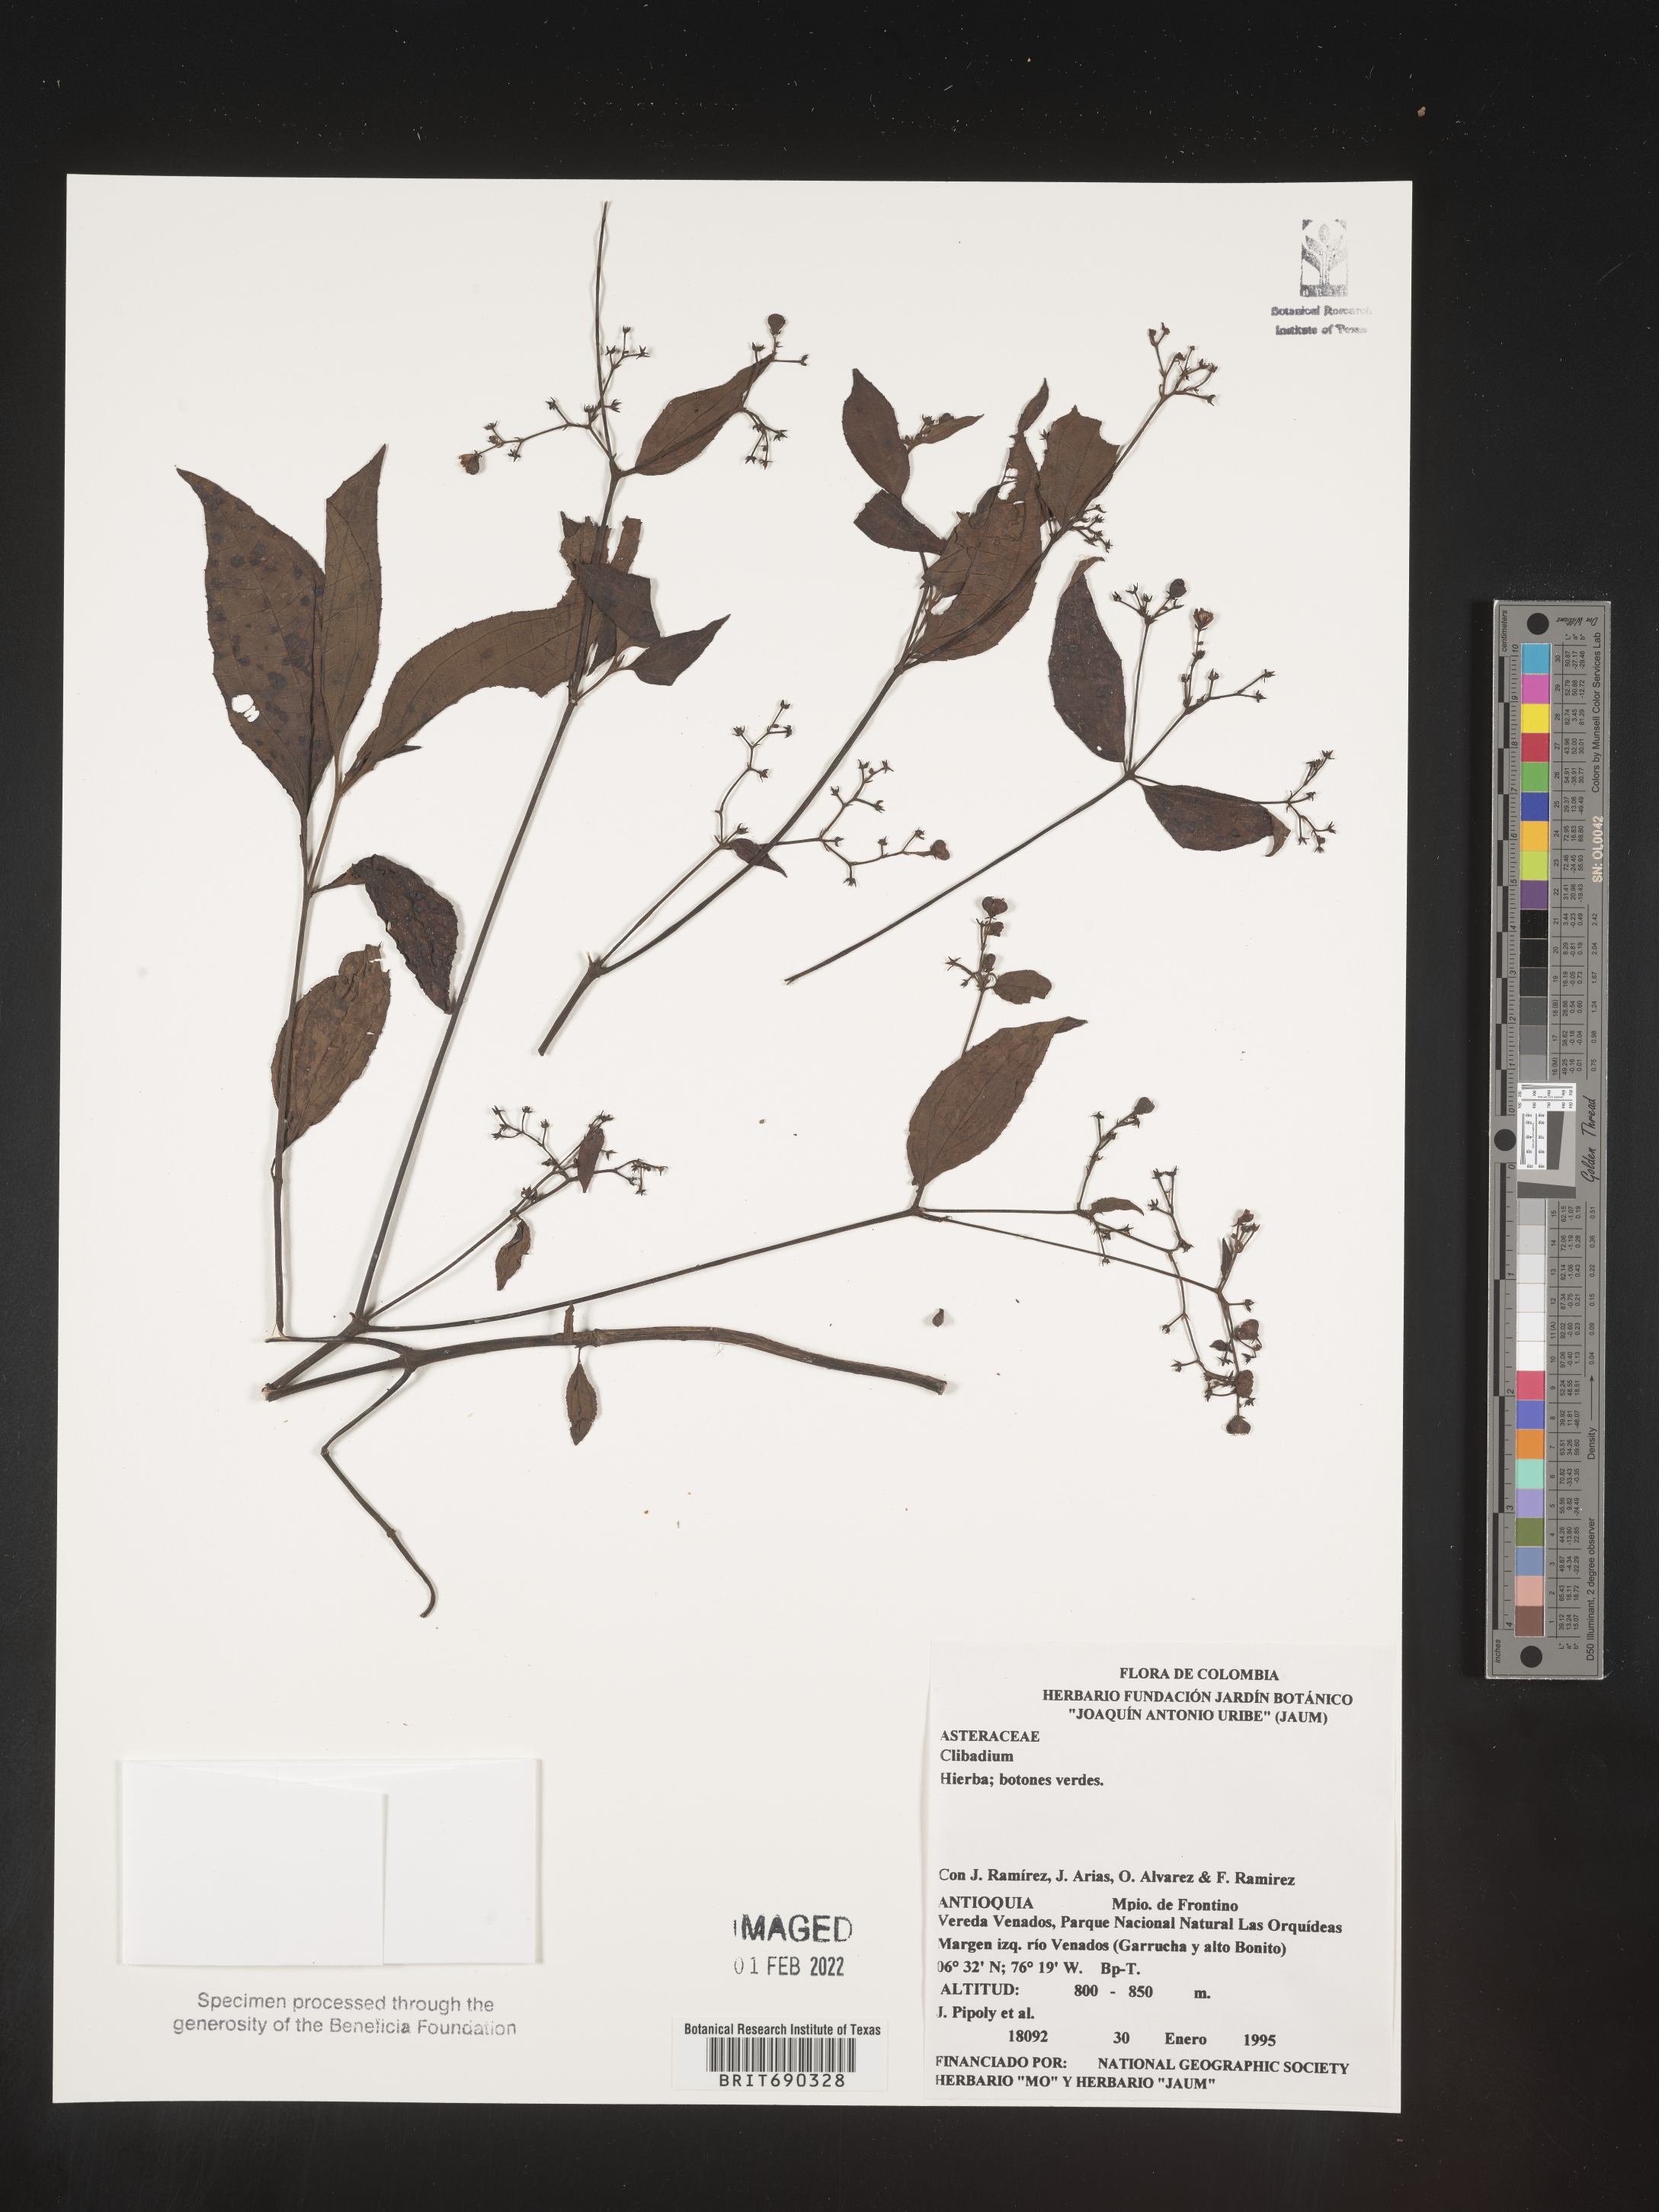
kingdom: Plantae
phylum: Tracheophyta
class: Magnoliopsida
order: Asterales
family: Asteraceae
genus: Clibadium
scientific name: Clibadium
